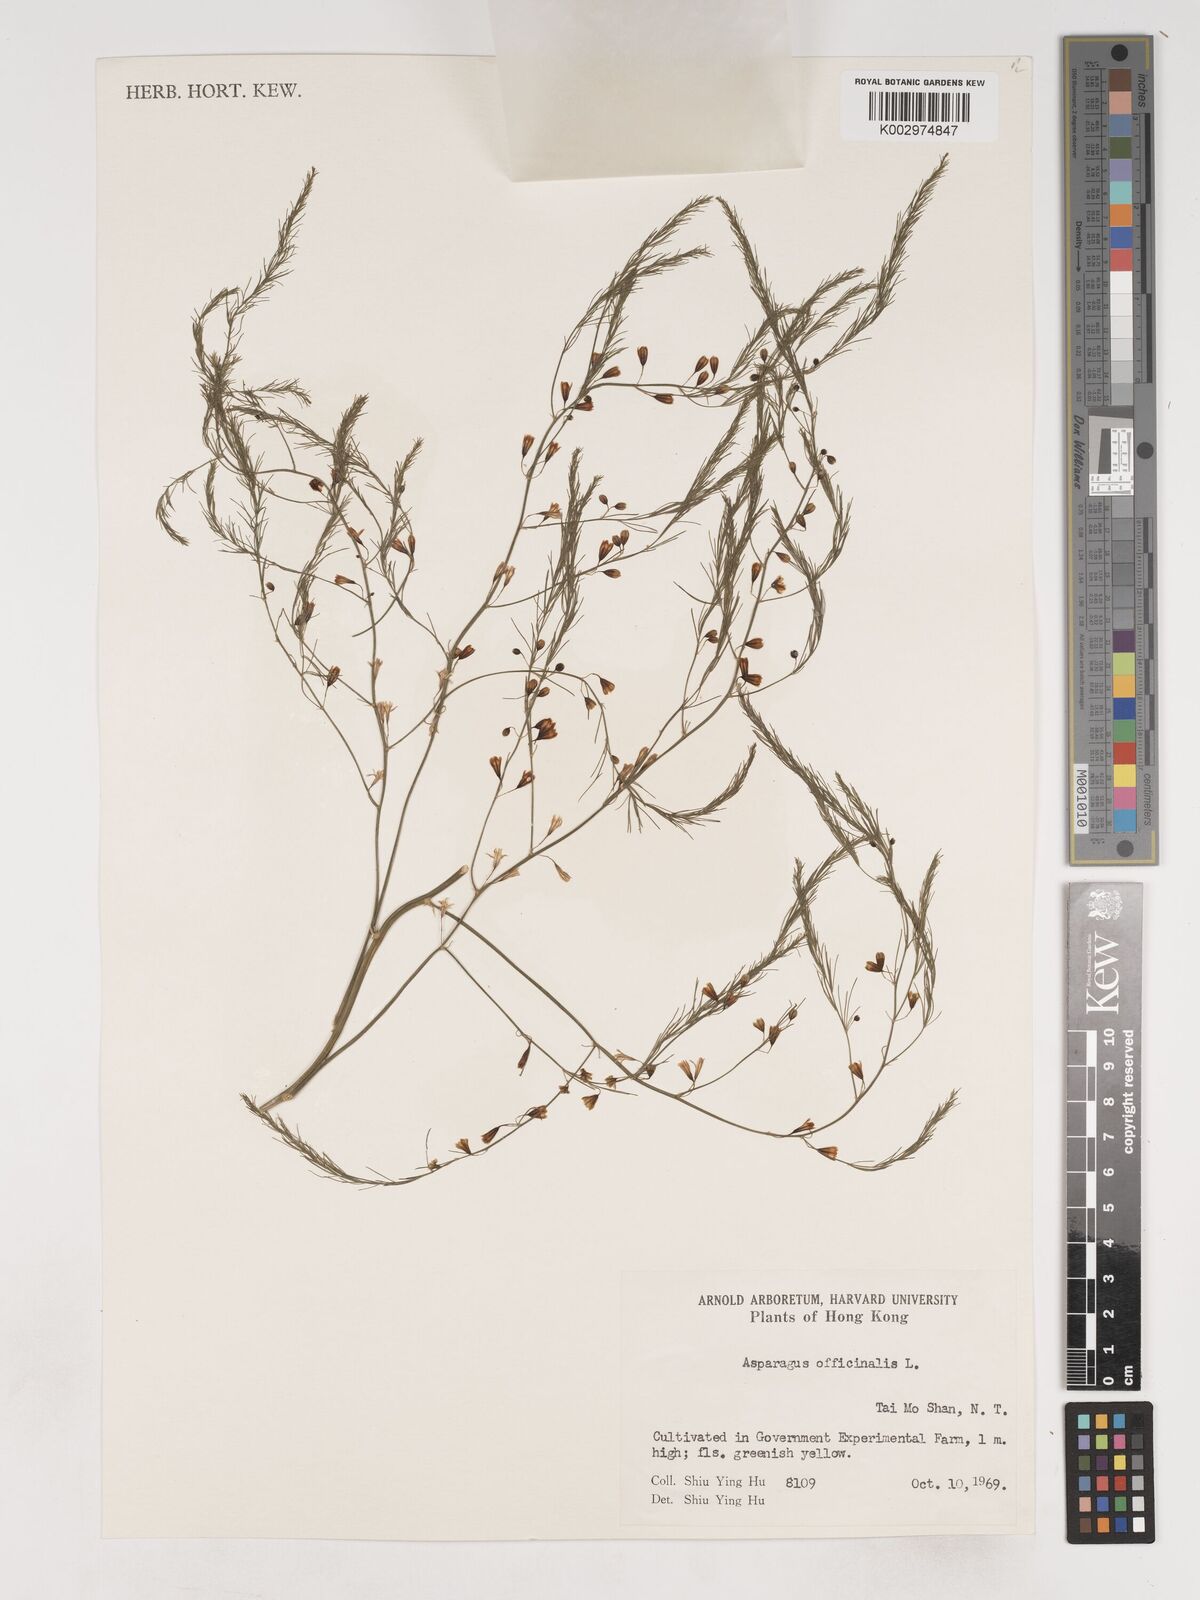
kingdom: Plantae
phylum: Tracheophyta
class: Liliopsida
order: Asparagales
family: Asparagaceae
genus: Asparagus
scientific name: Asparagus officinalis
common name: Garden asparagus
